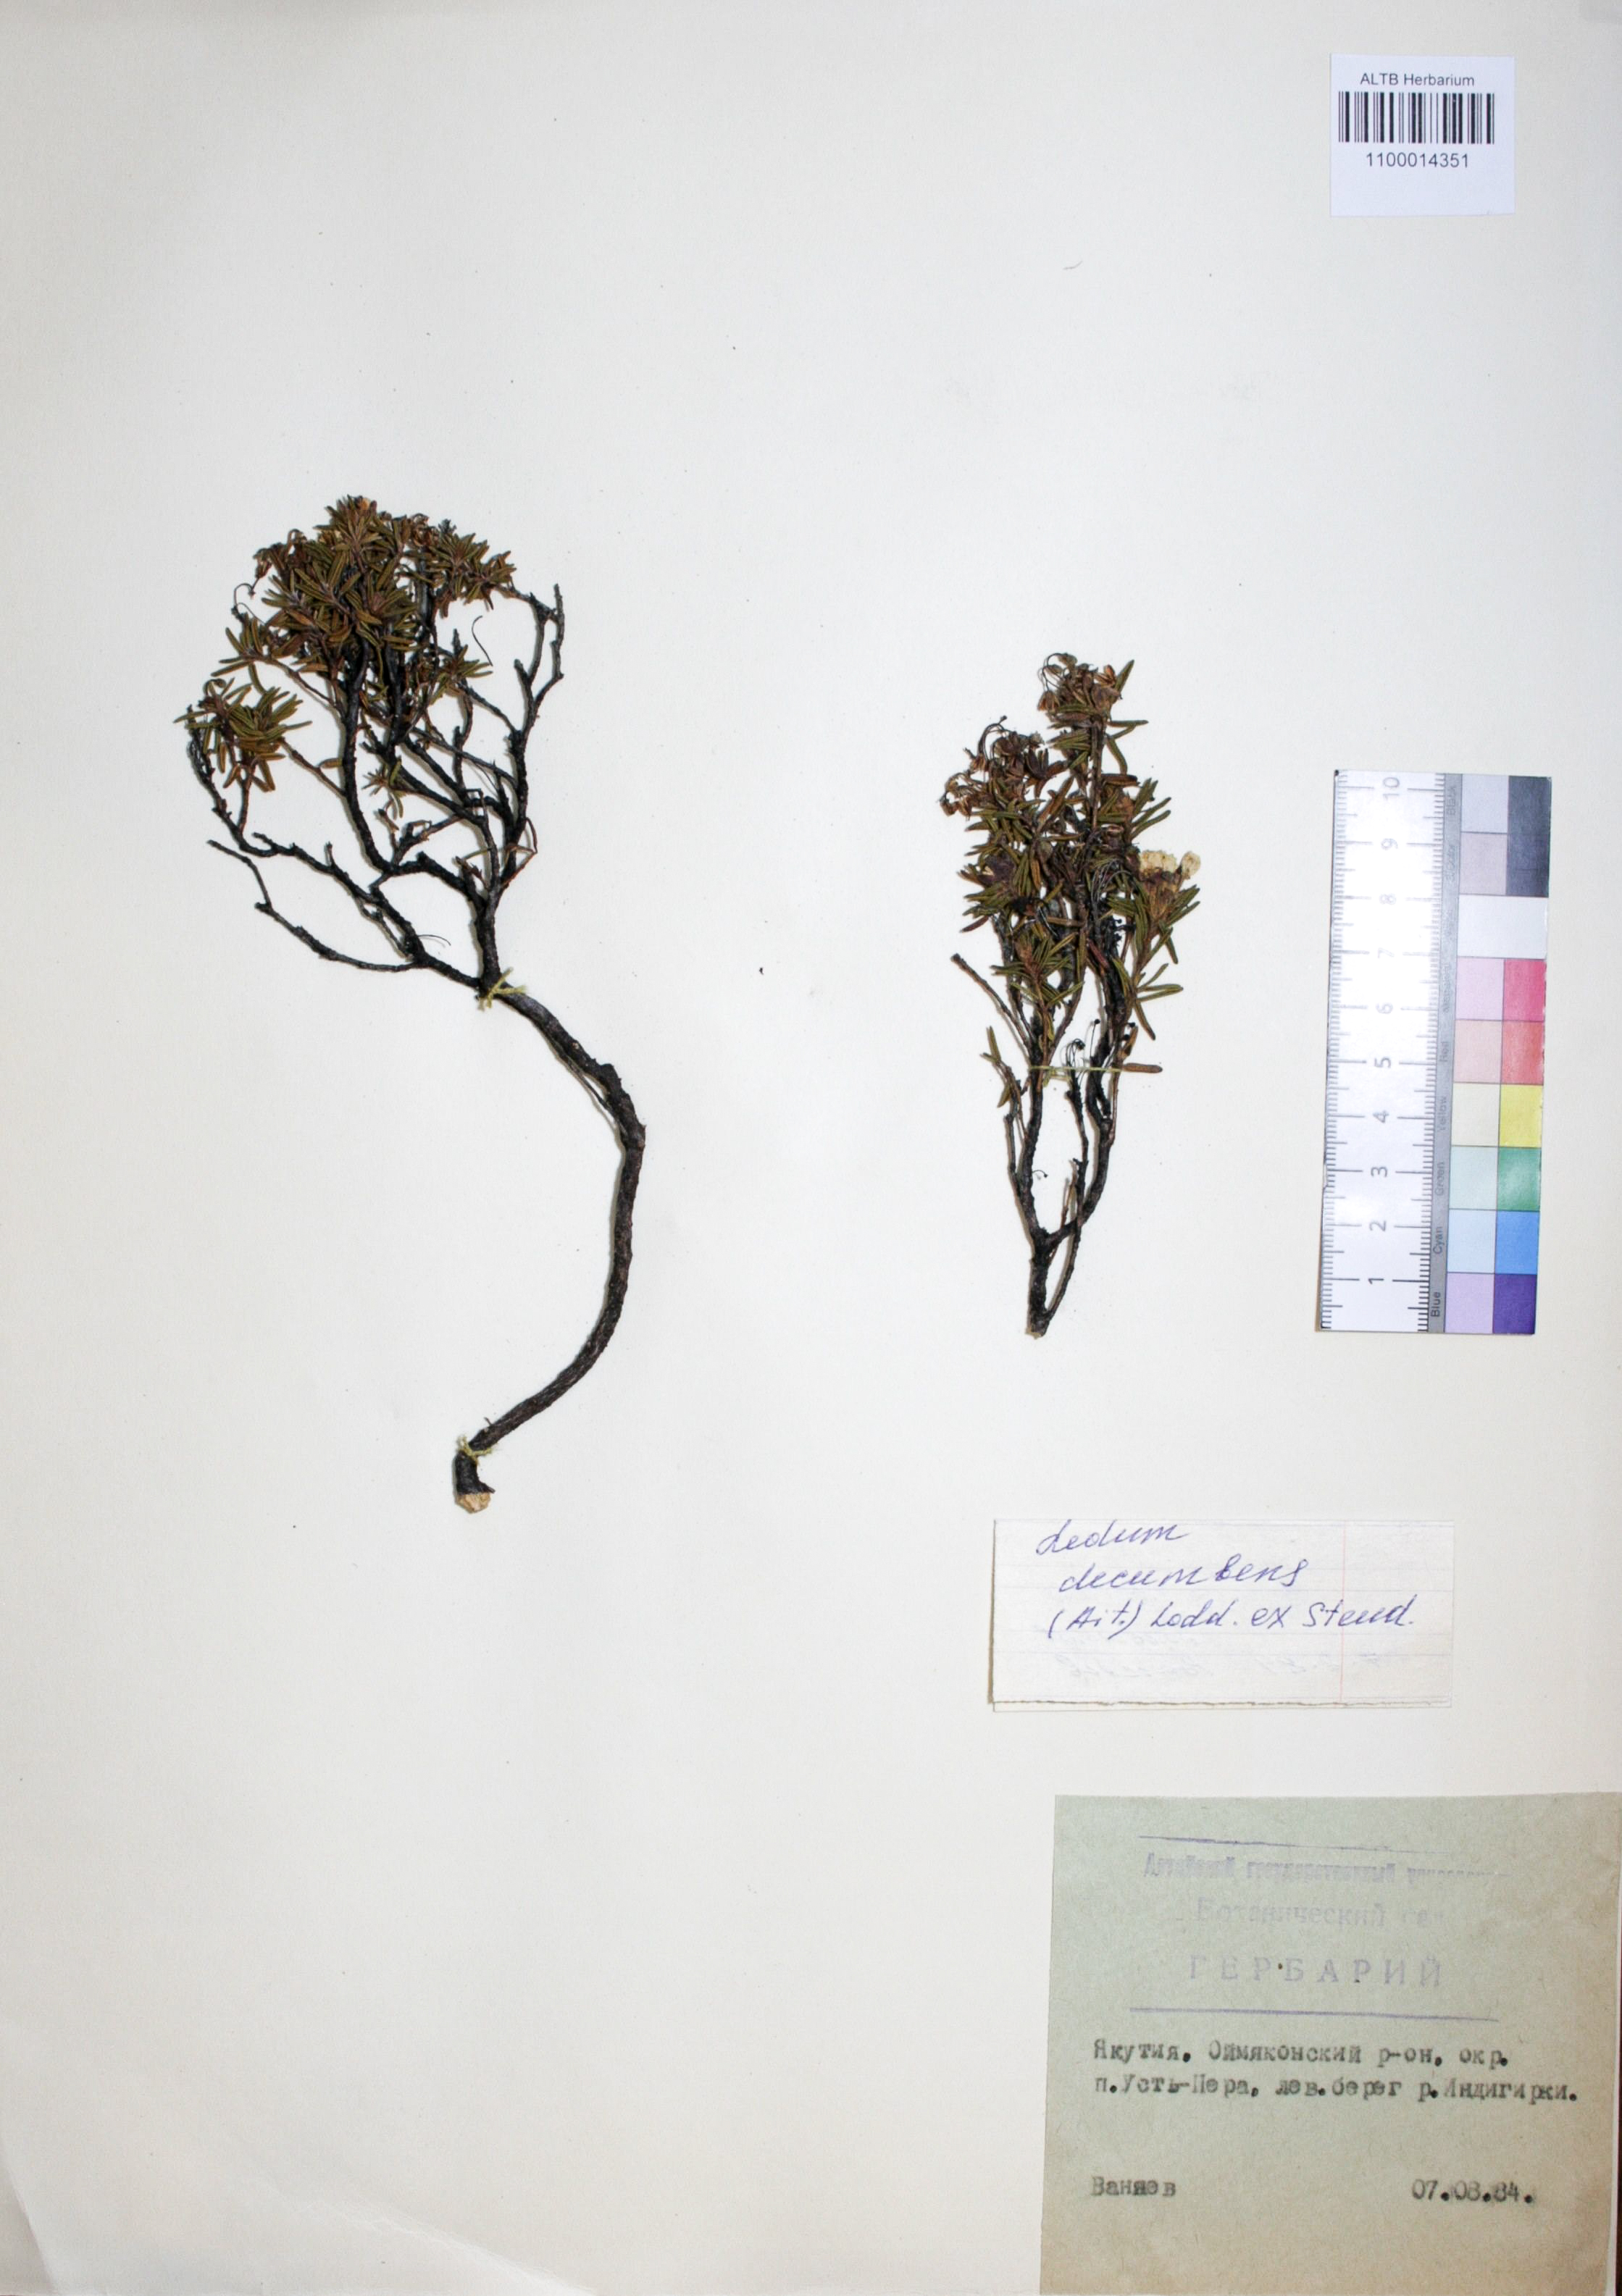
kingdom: Plantae
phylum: Tracheophyta
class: Magnoliopsida
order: Ericales
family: Ericaceae
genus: Rhododendron
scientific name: Rhododendron tomentosum
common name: Marsh labrador tea
